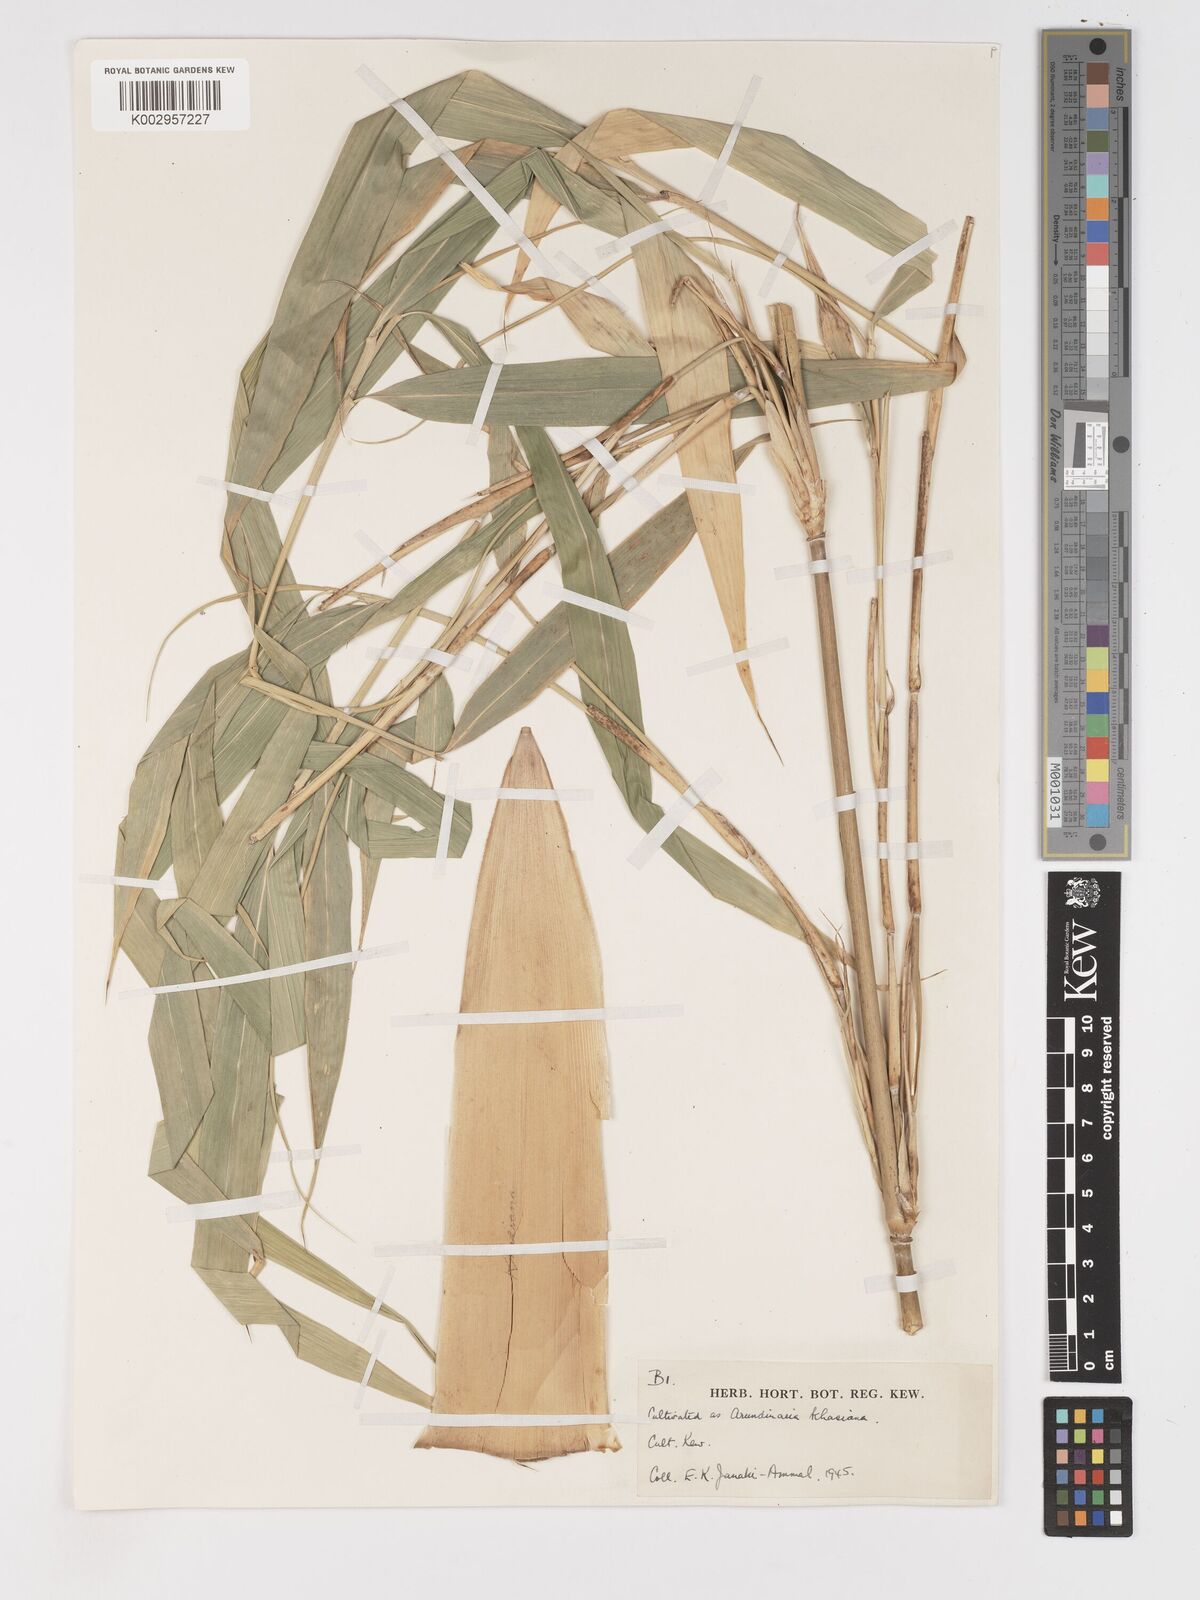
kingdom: Plantae
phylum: Tracheophyta
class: Liliopsida
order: Poales
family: Poaceae
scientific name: Poaceae
